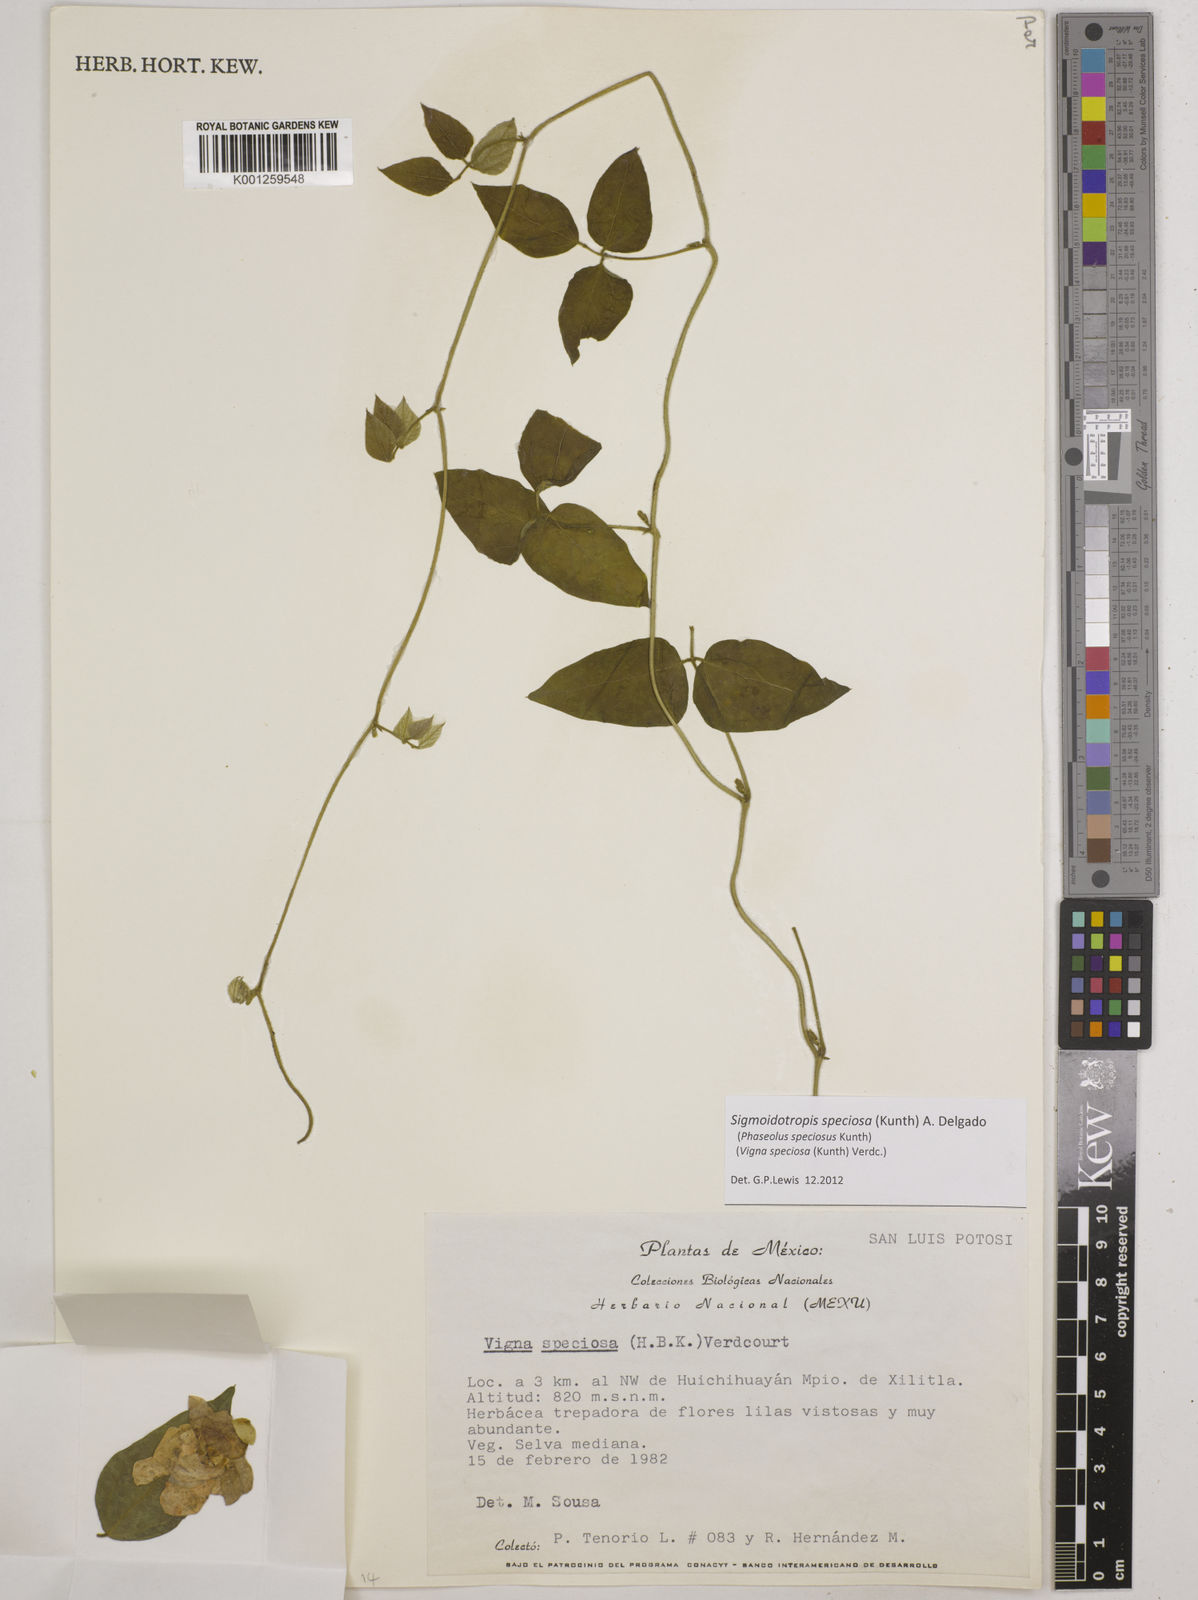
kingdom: Plantae
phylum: Tracheophyta
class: Magnoliopsida
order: Fabales
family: Fabaceae
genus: Sigmoidotropis
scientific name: Sigmoidotropis speciosa
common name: Snail flower
